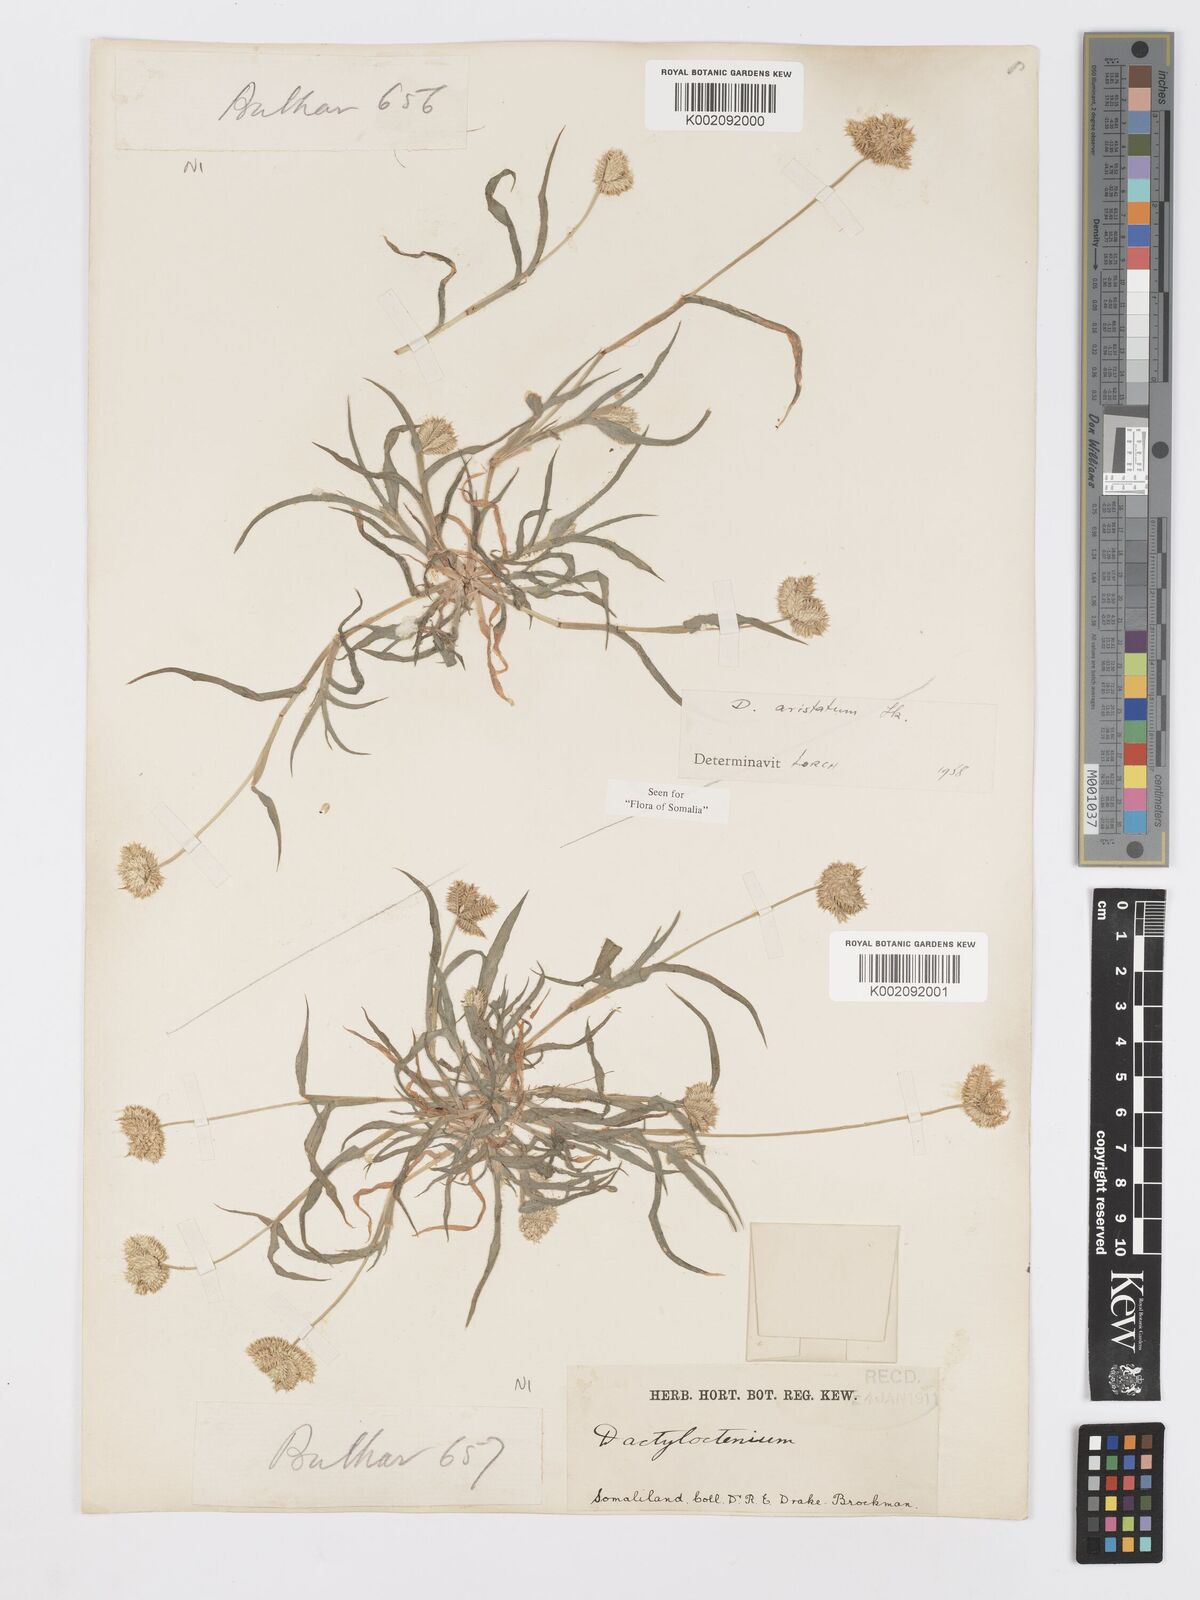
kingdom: Plantae
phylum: Tracheophyta
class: Liliopsida
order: Poales
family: Poaceae
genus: Dactyloctenium
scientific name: Dactyloctenium aristatum
